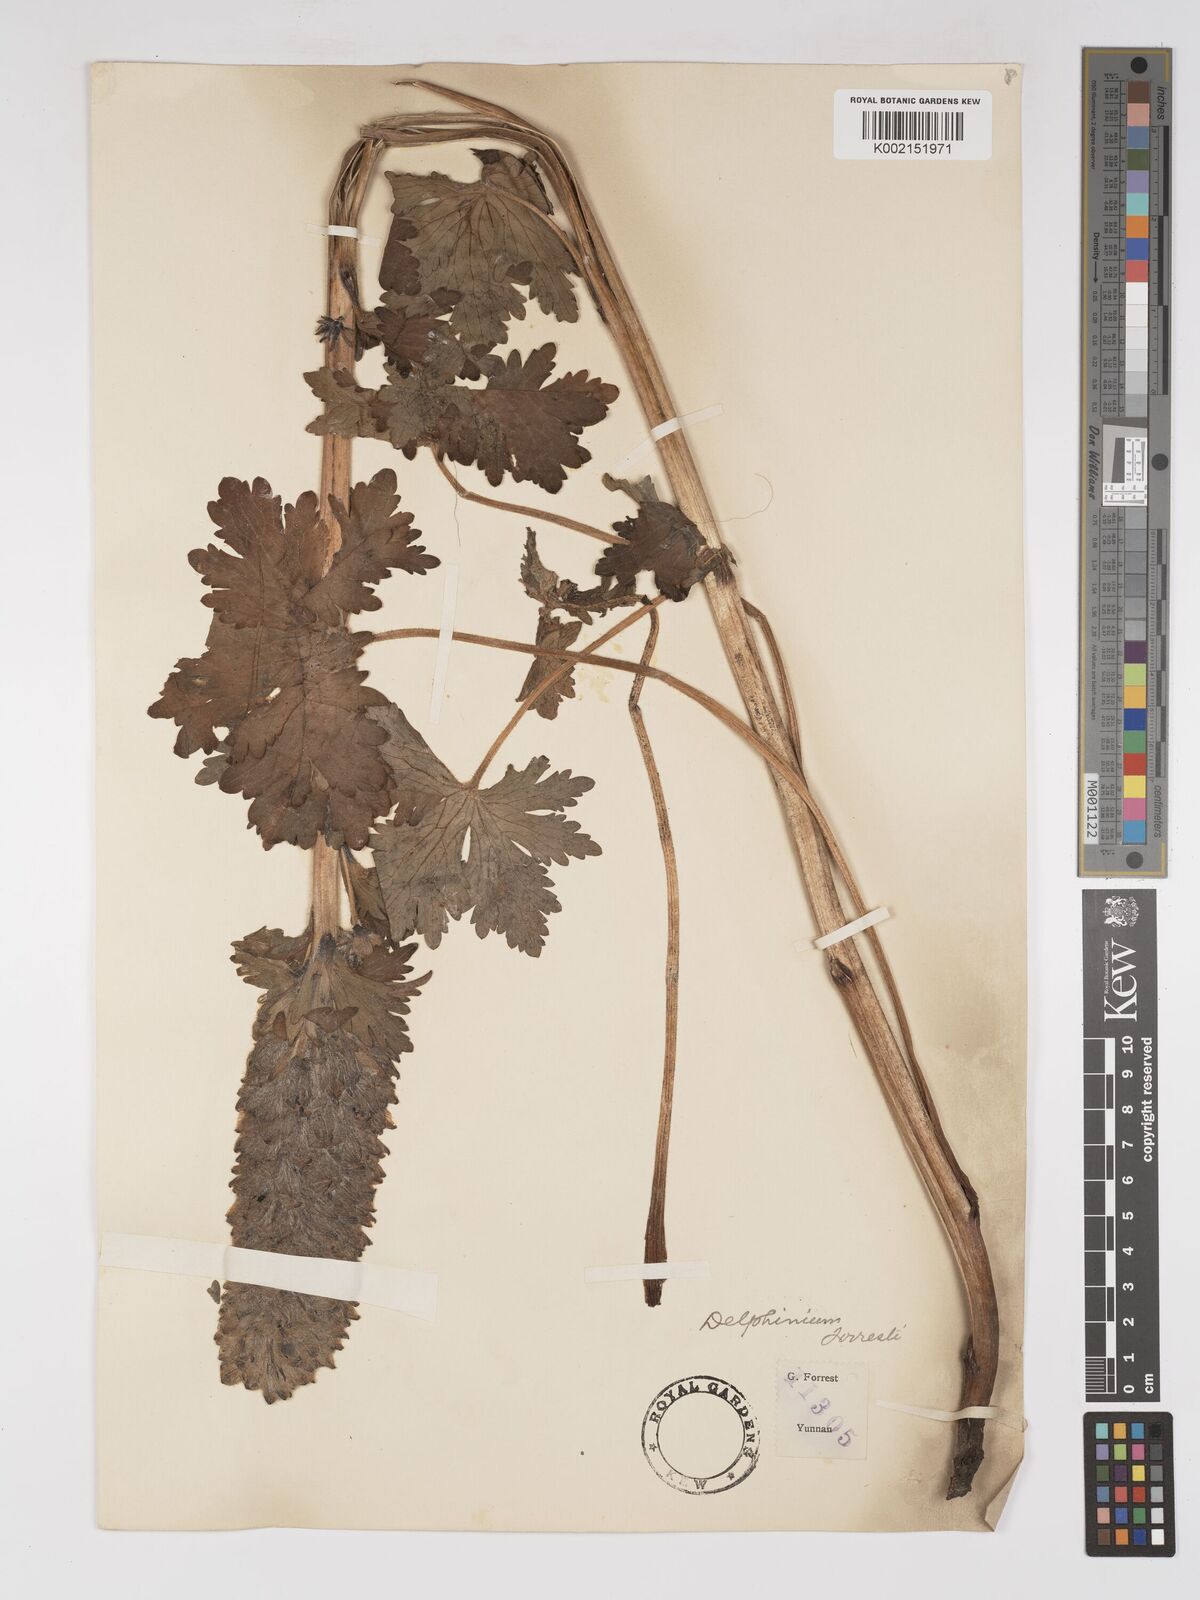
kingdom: Plantae
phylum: Tracheophyta
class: Magnoliopsida
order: Ranunculales
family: Ranunculaceae
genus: Delphinium
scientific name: Delphinium forrestii
